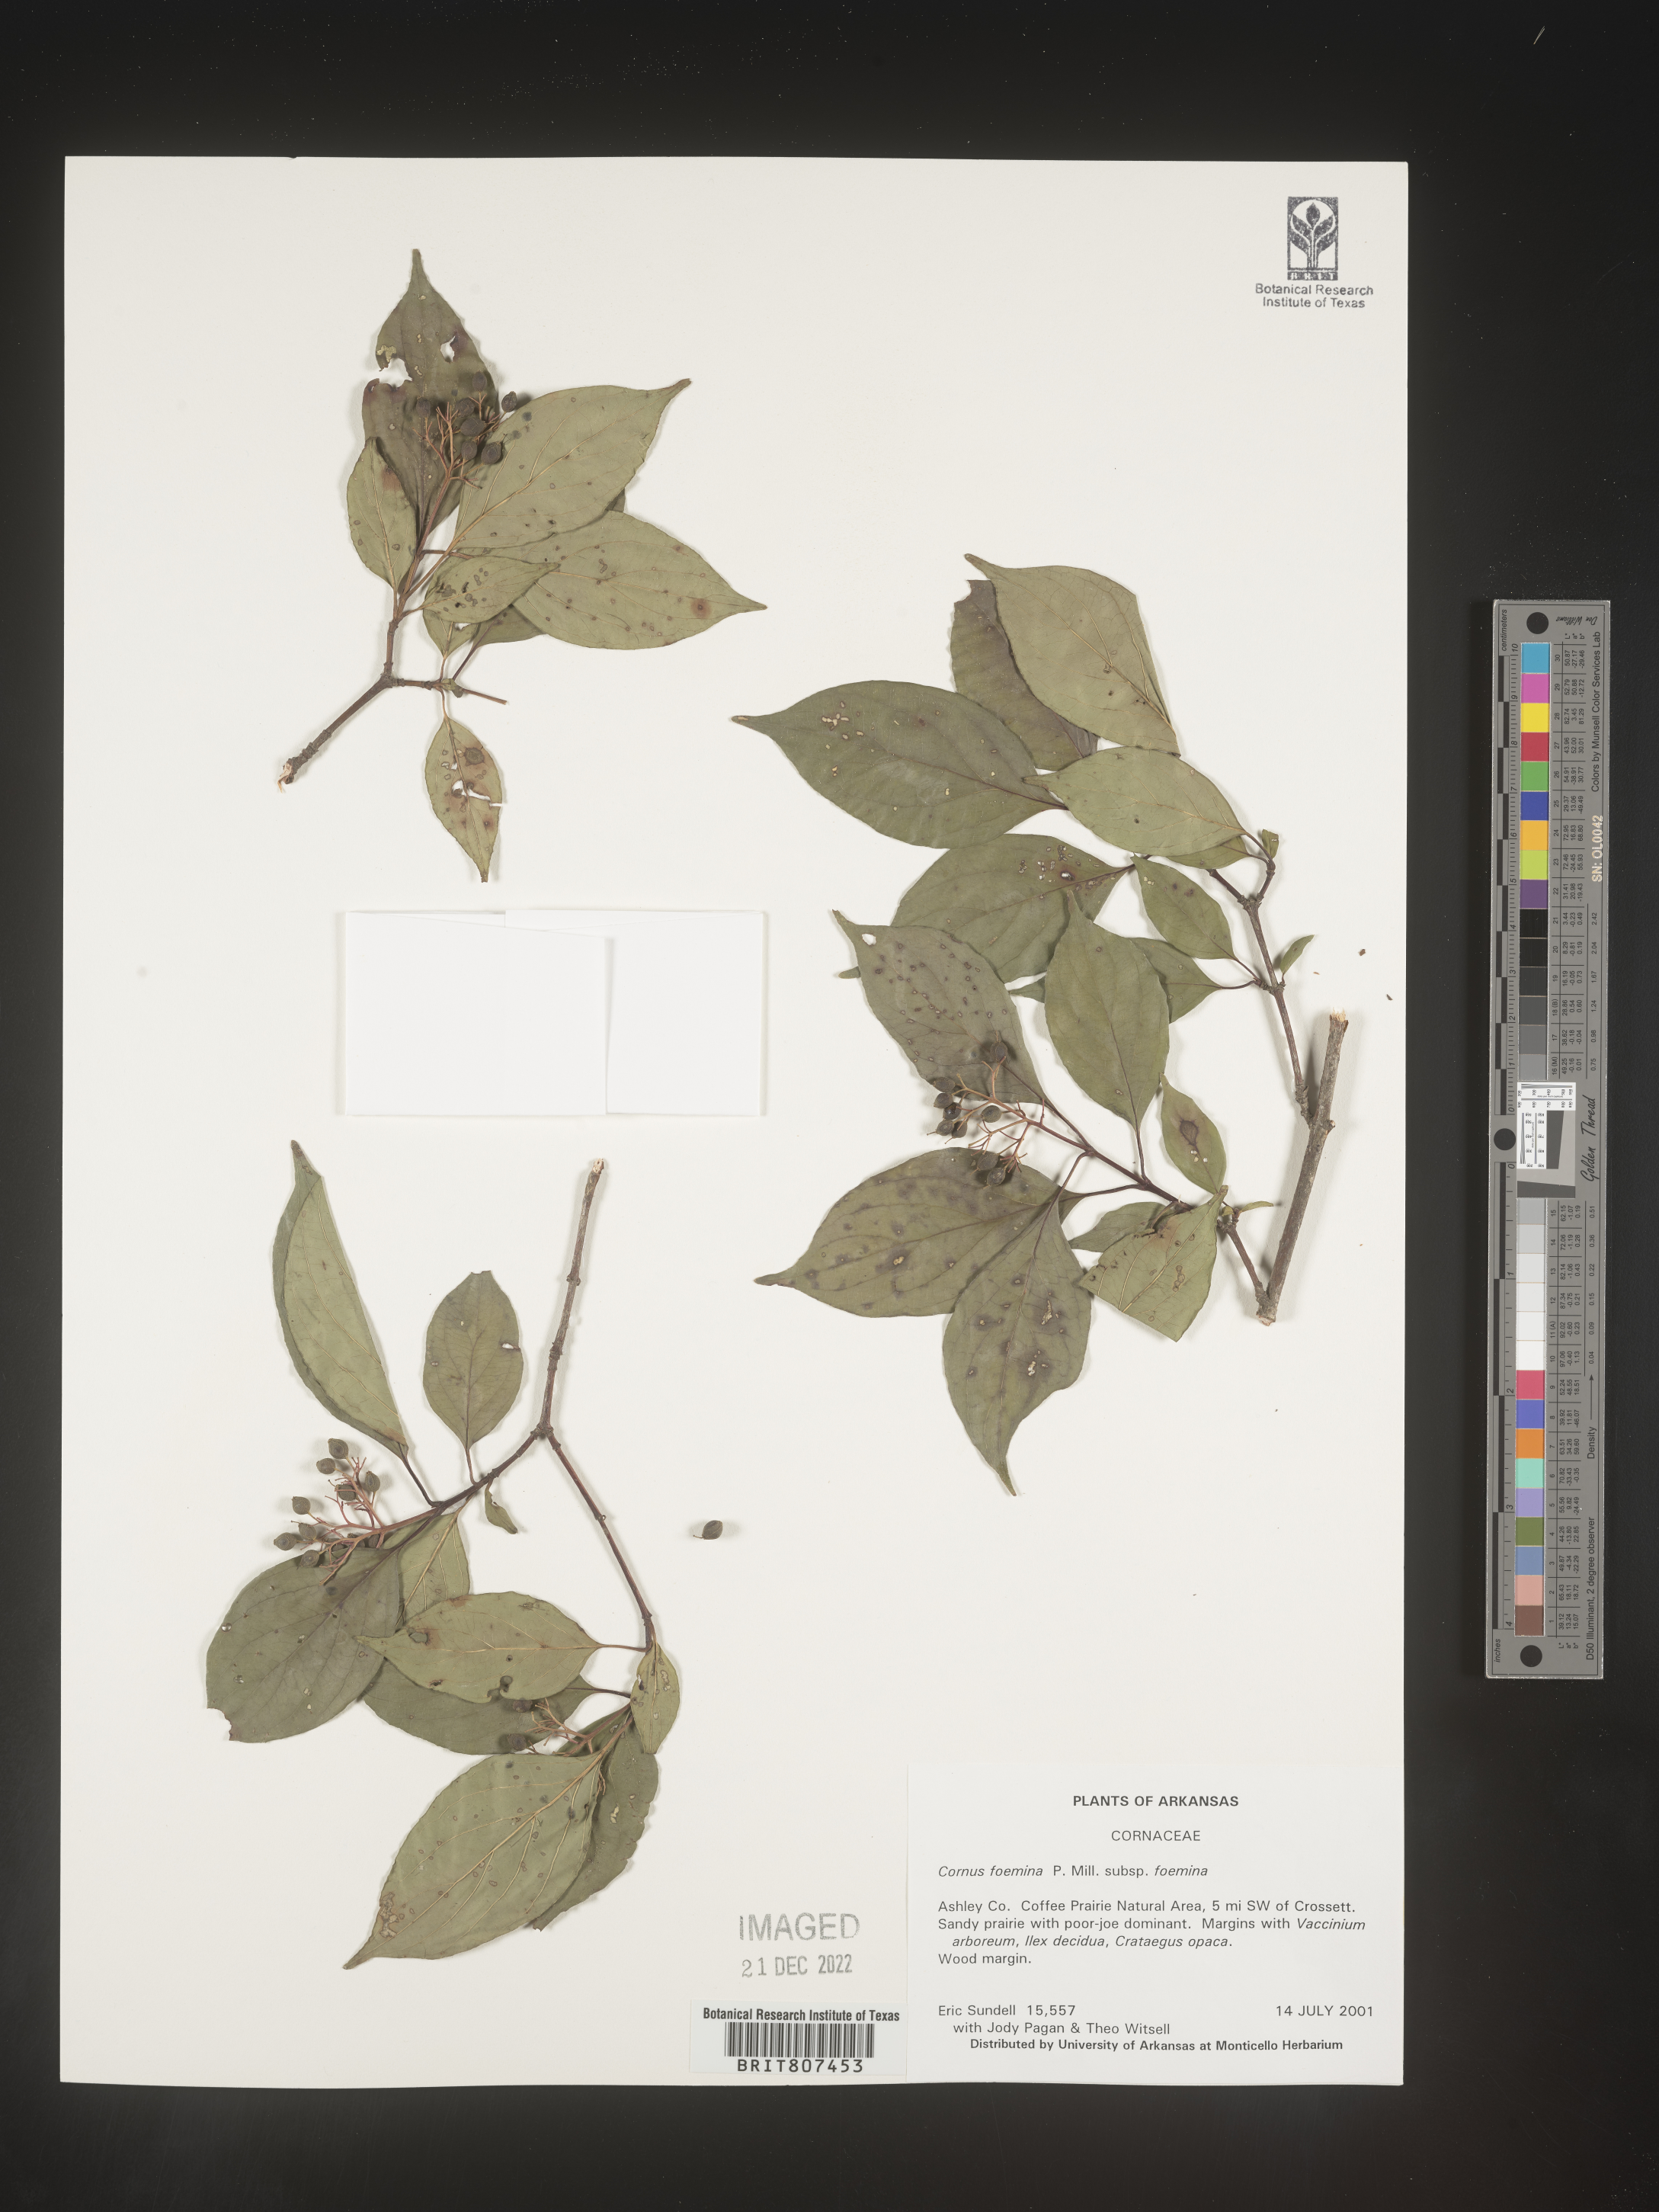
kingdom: Plantae
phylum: Tracheophyta
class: Magnoliopsida
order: Cornales
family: Cornaceae
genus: Cornus
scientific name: Cornus foemina
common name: Swamp dogwood
